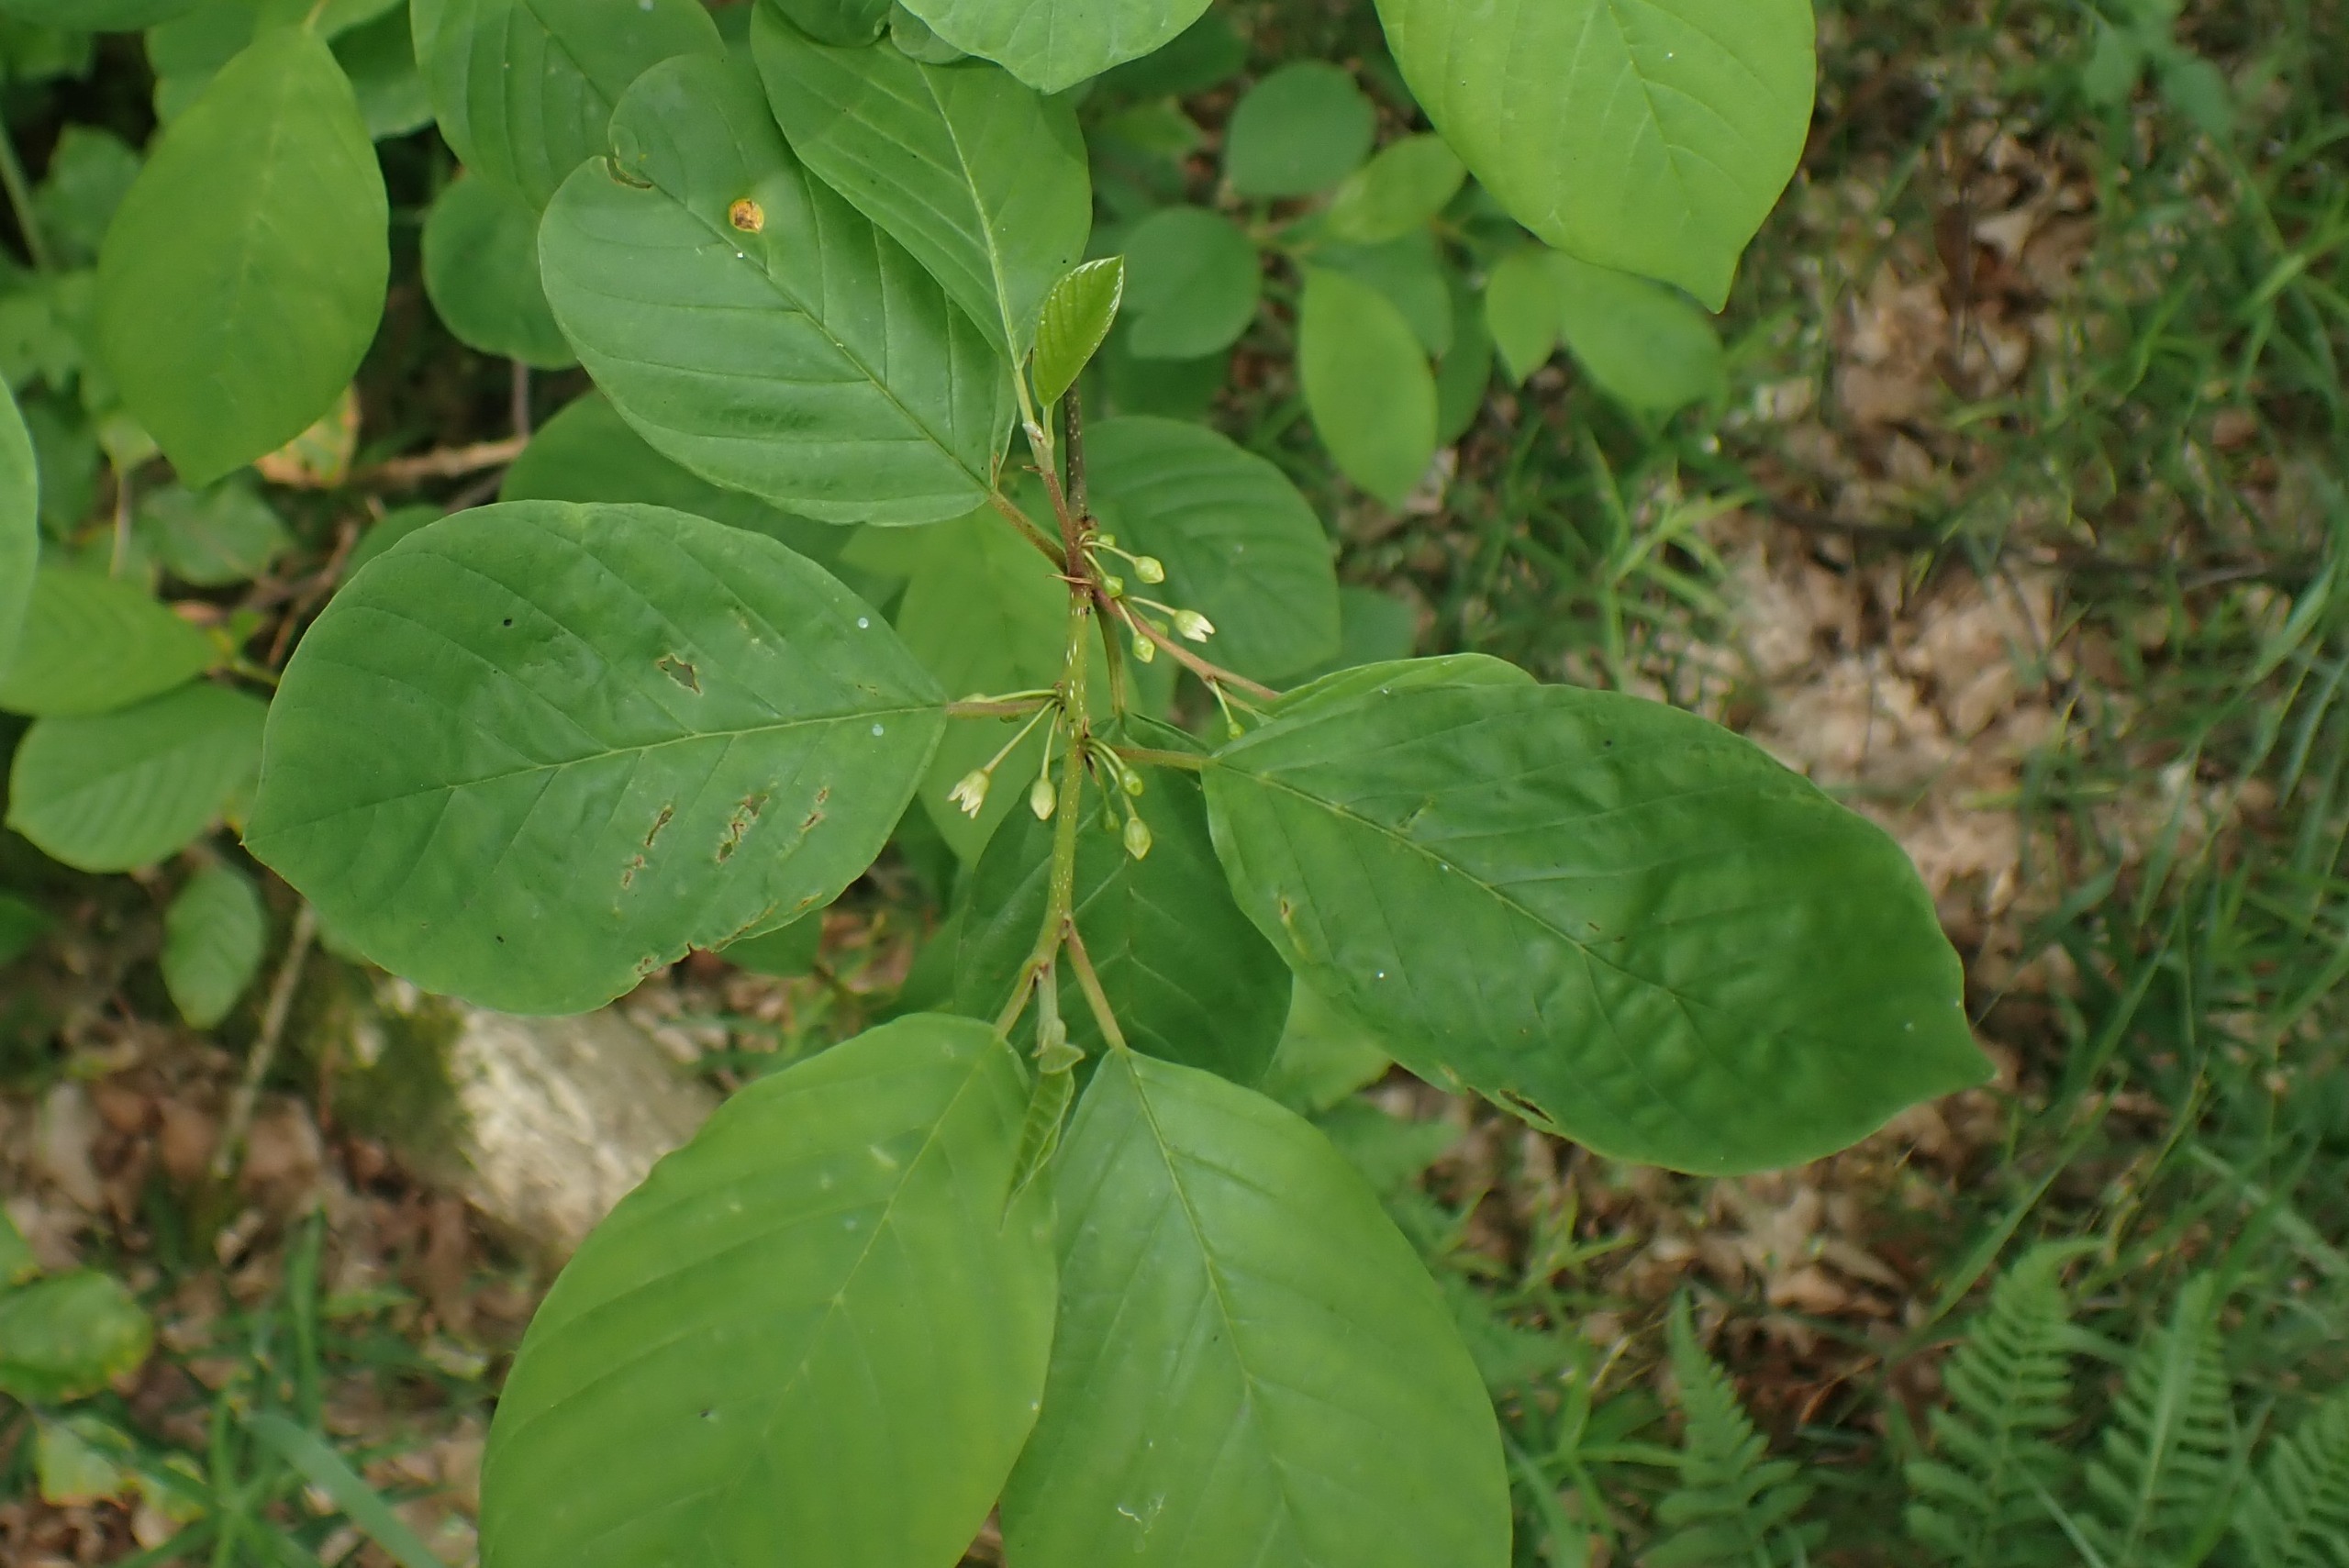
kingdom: Plantae
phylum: Tracheophyta
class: Magnoliopsida
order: Rosales
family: Rhamnaceae
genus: Frangula
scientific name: Frangula alnus
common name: Tørst
